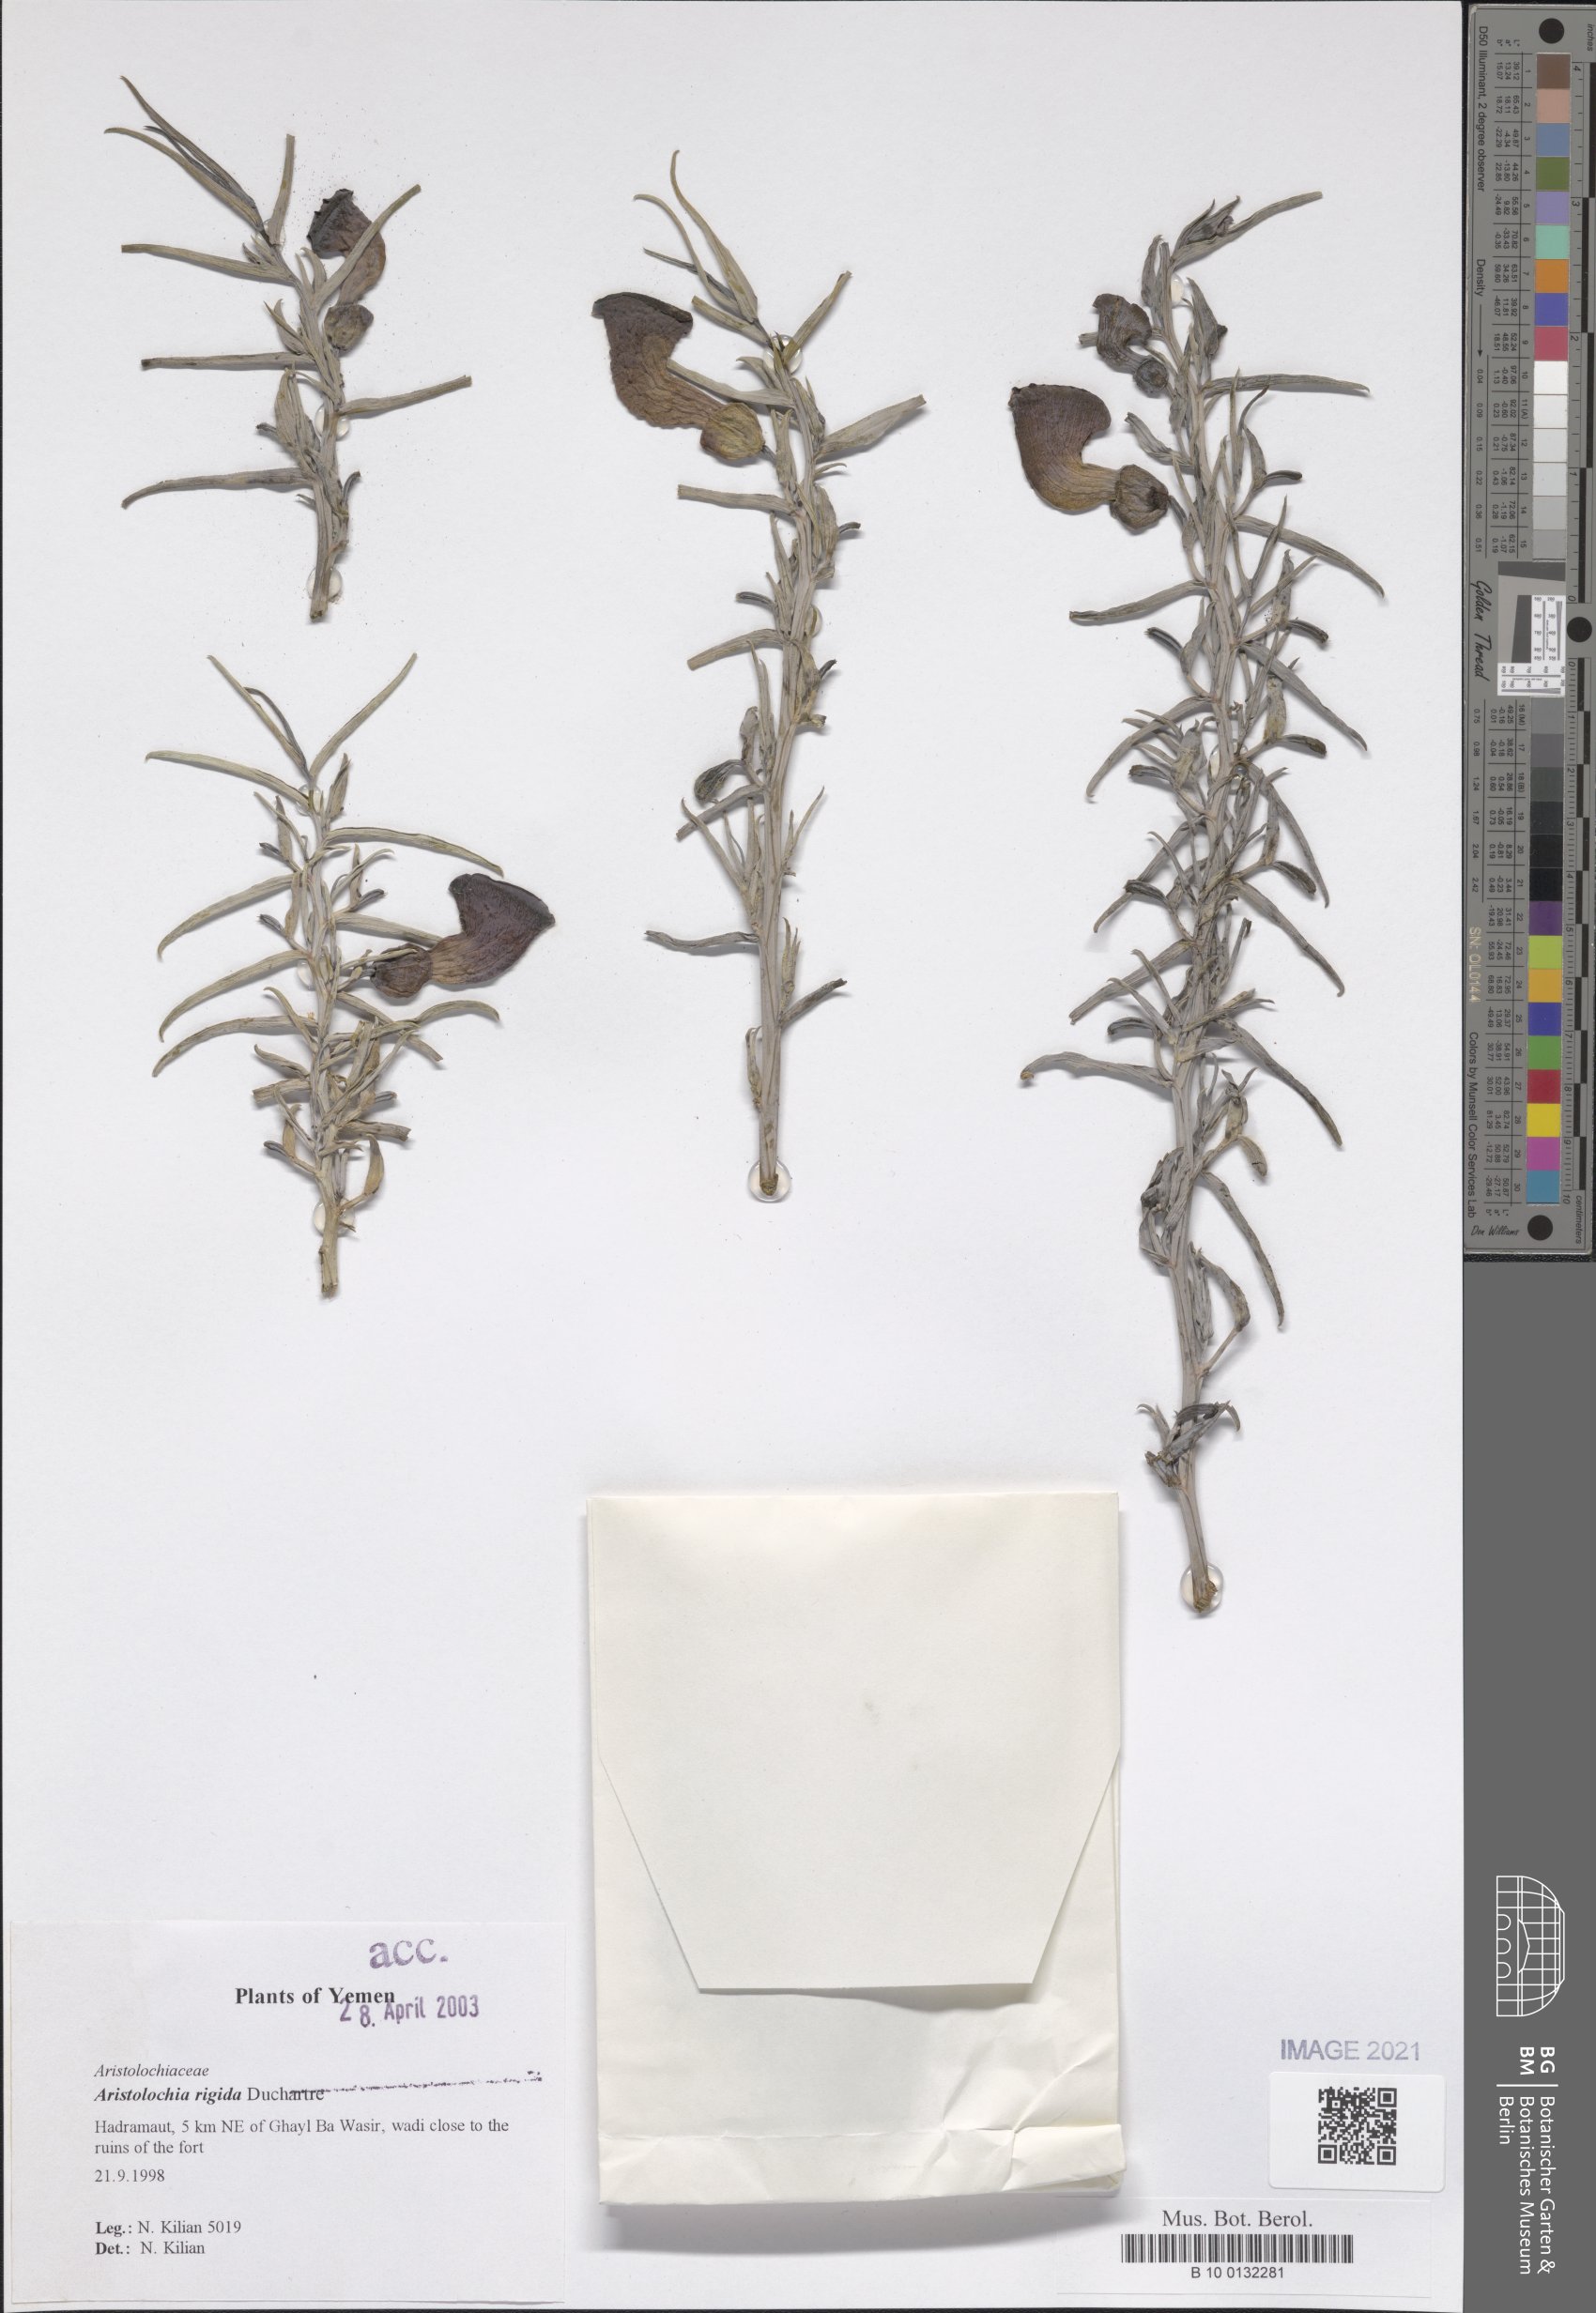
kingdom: Plantae
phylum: Tracheophyta
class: Magnoliopsida
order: Piperales
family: Aristolochiaceae
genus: Aristolochia
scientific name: Aristolochia rigida
